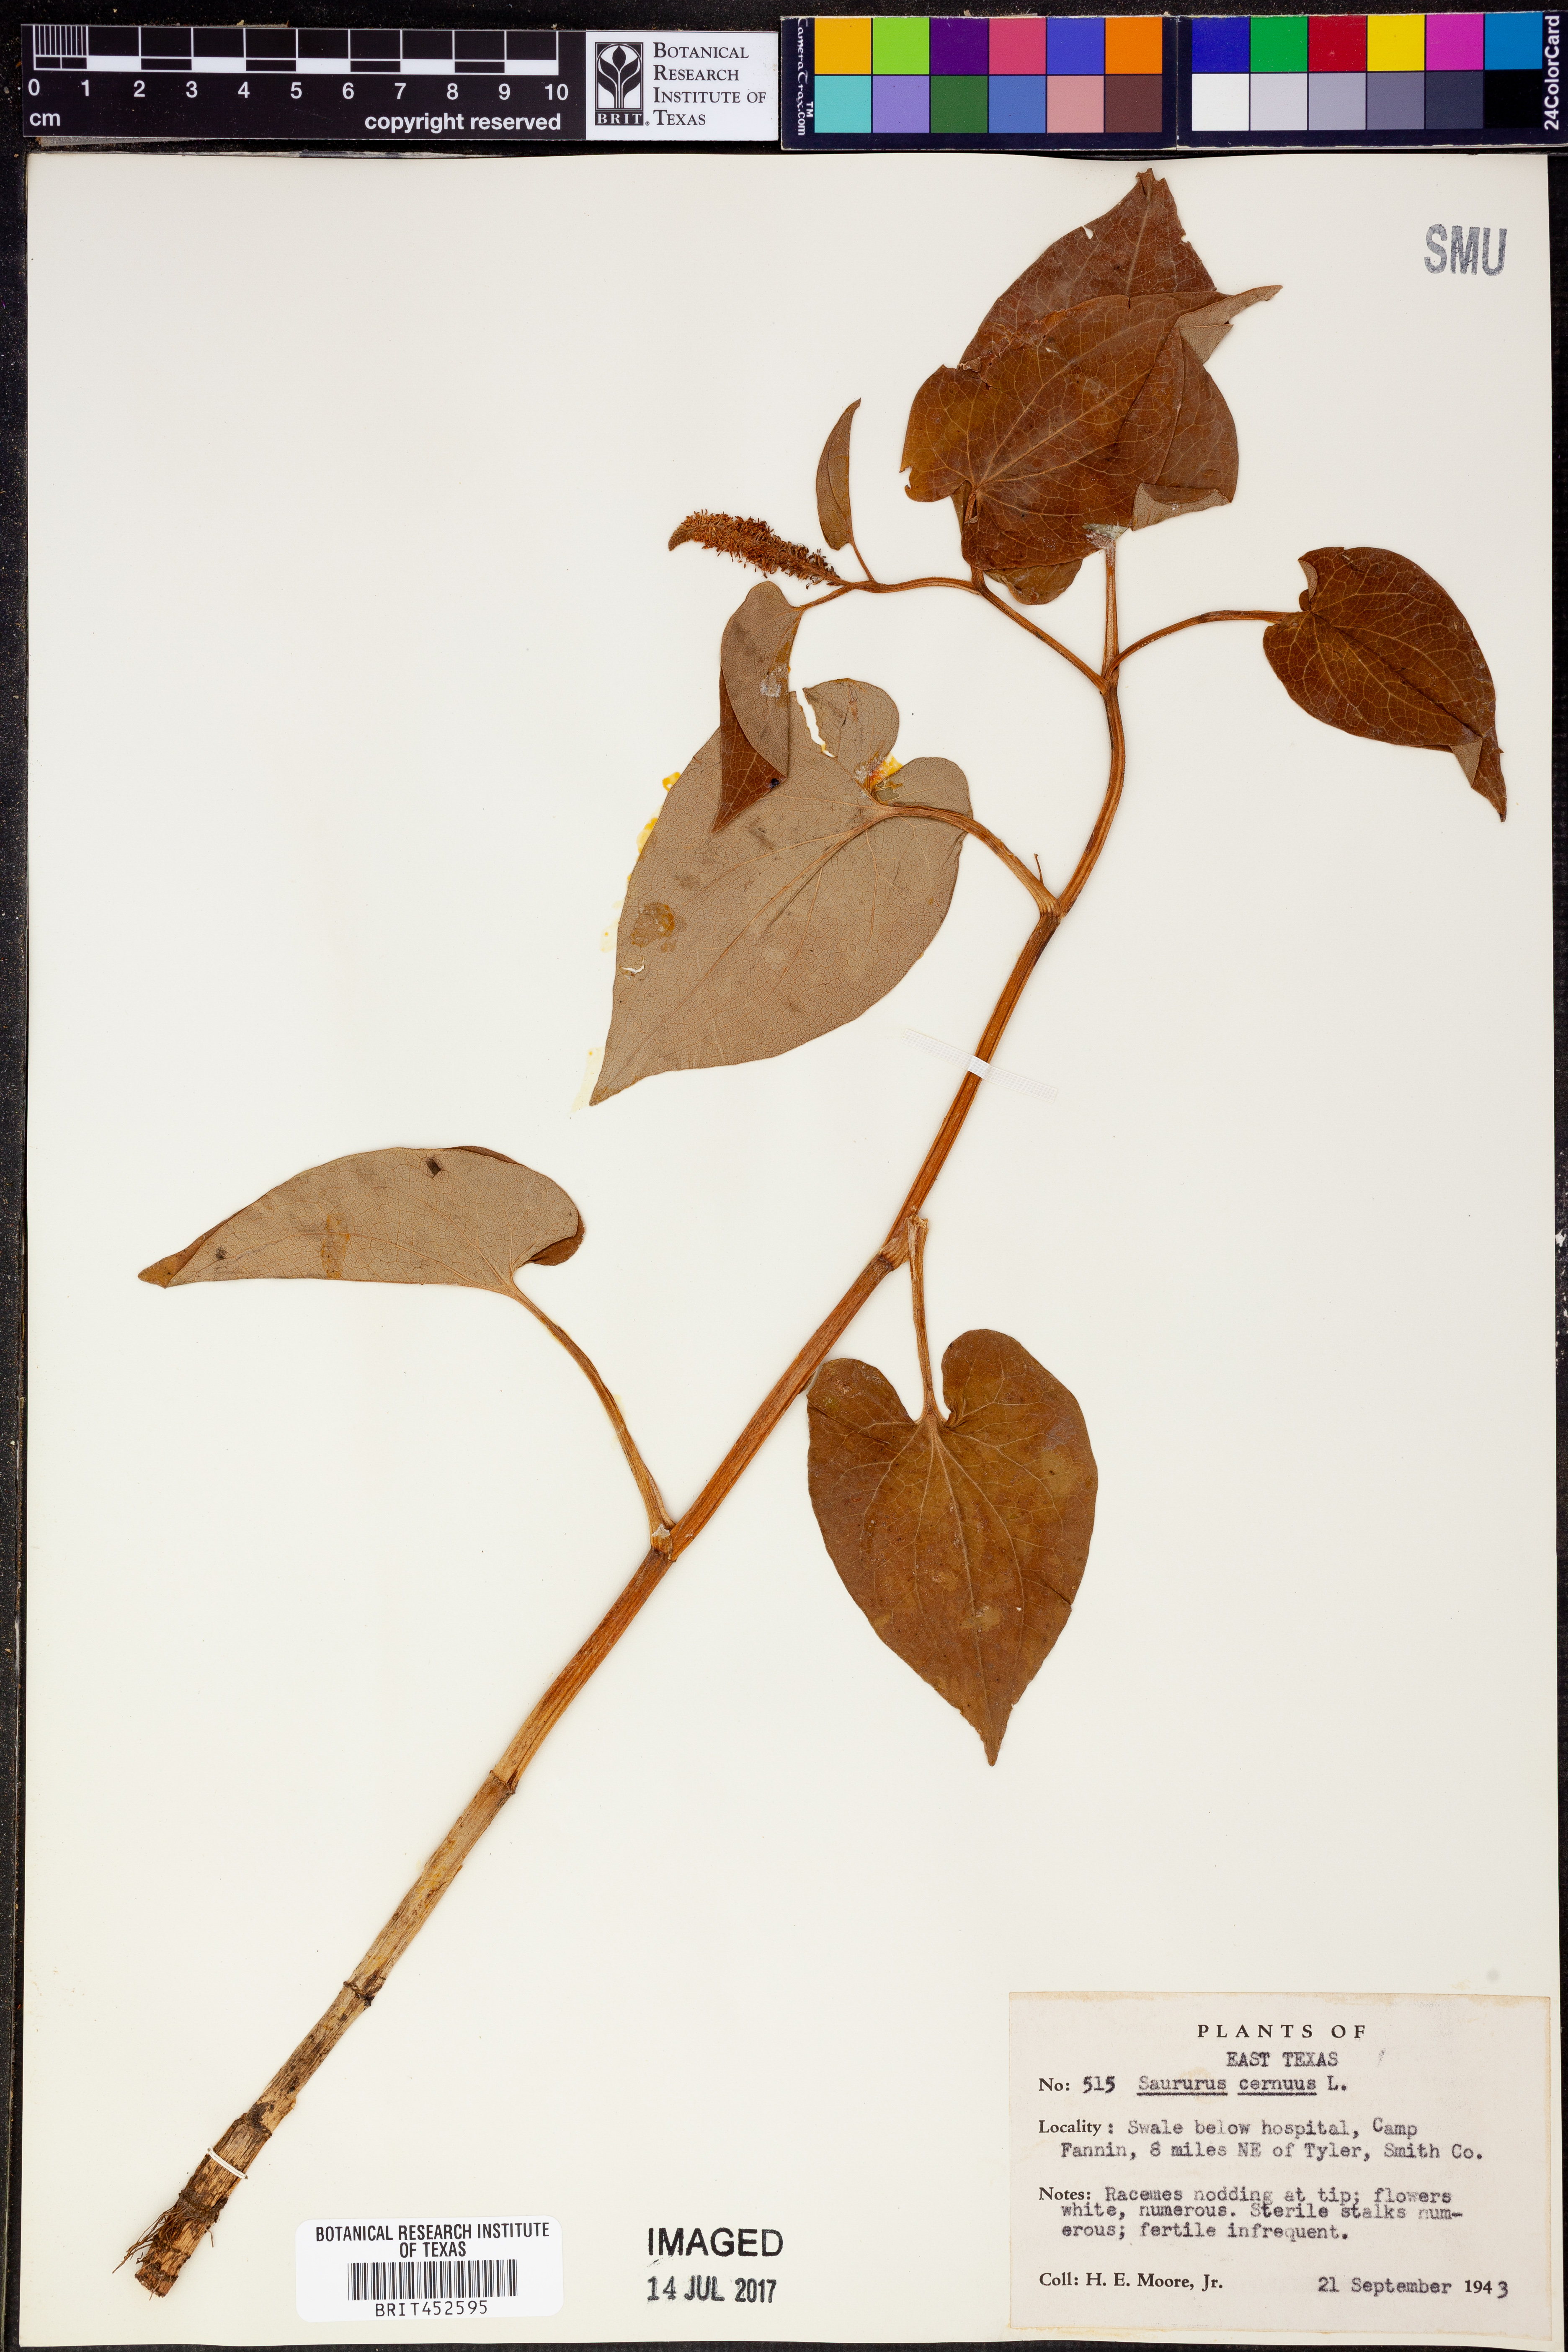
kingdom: Plantae
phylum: Tracheophyta
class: Magnoliopsida
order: Piperales
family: Saururaceae
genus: Saururus
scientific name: Saururus cernuus
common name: Lizard's-tail
